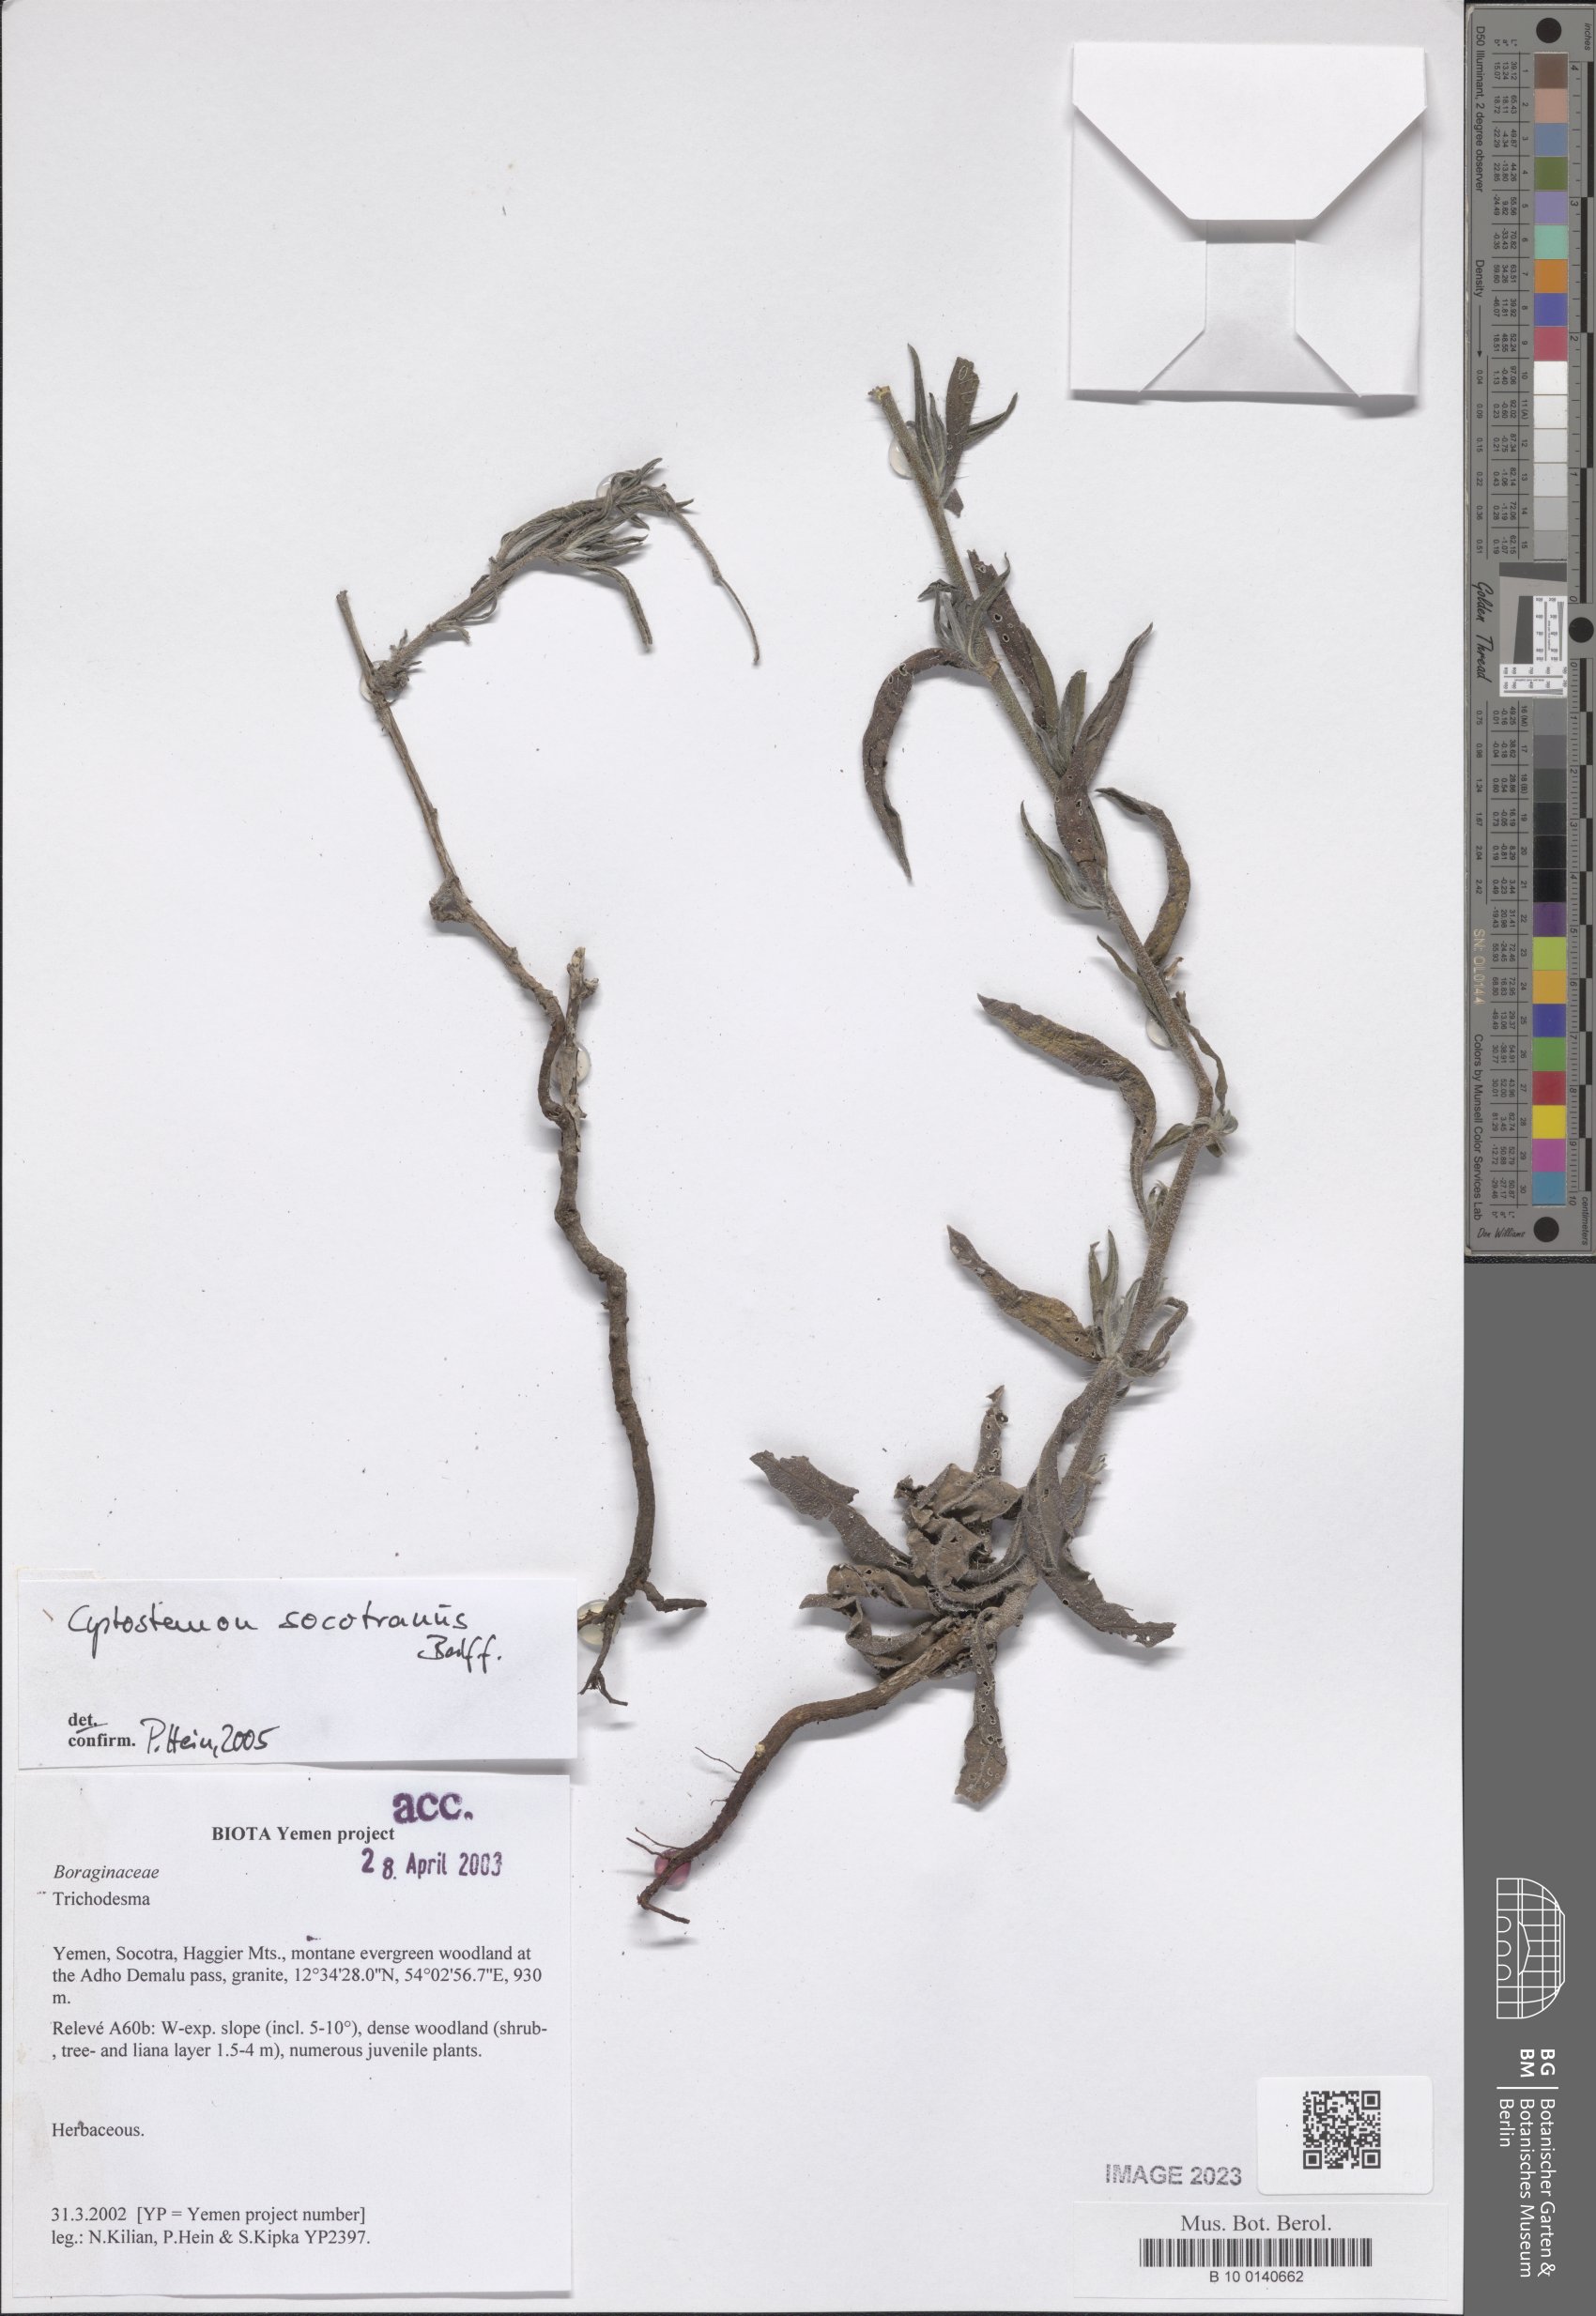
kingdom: Plantae
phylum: Tracheophyta
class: Magnoliopsida
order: Boraginales
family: Boraginaceae
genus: Cystostemon
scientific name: Cystostemon socotranus
